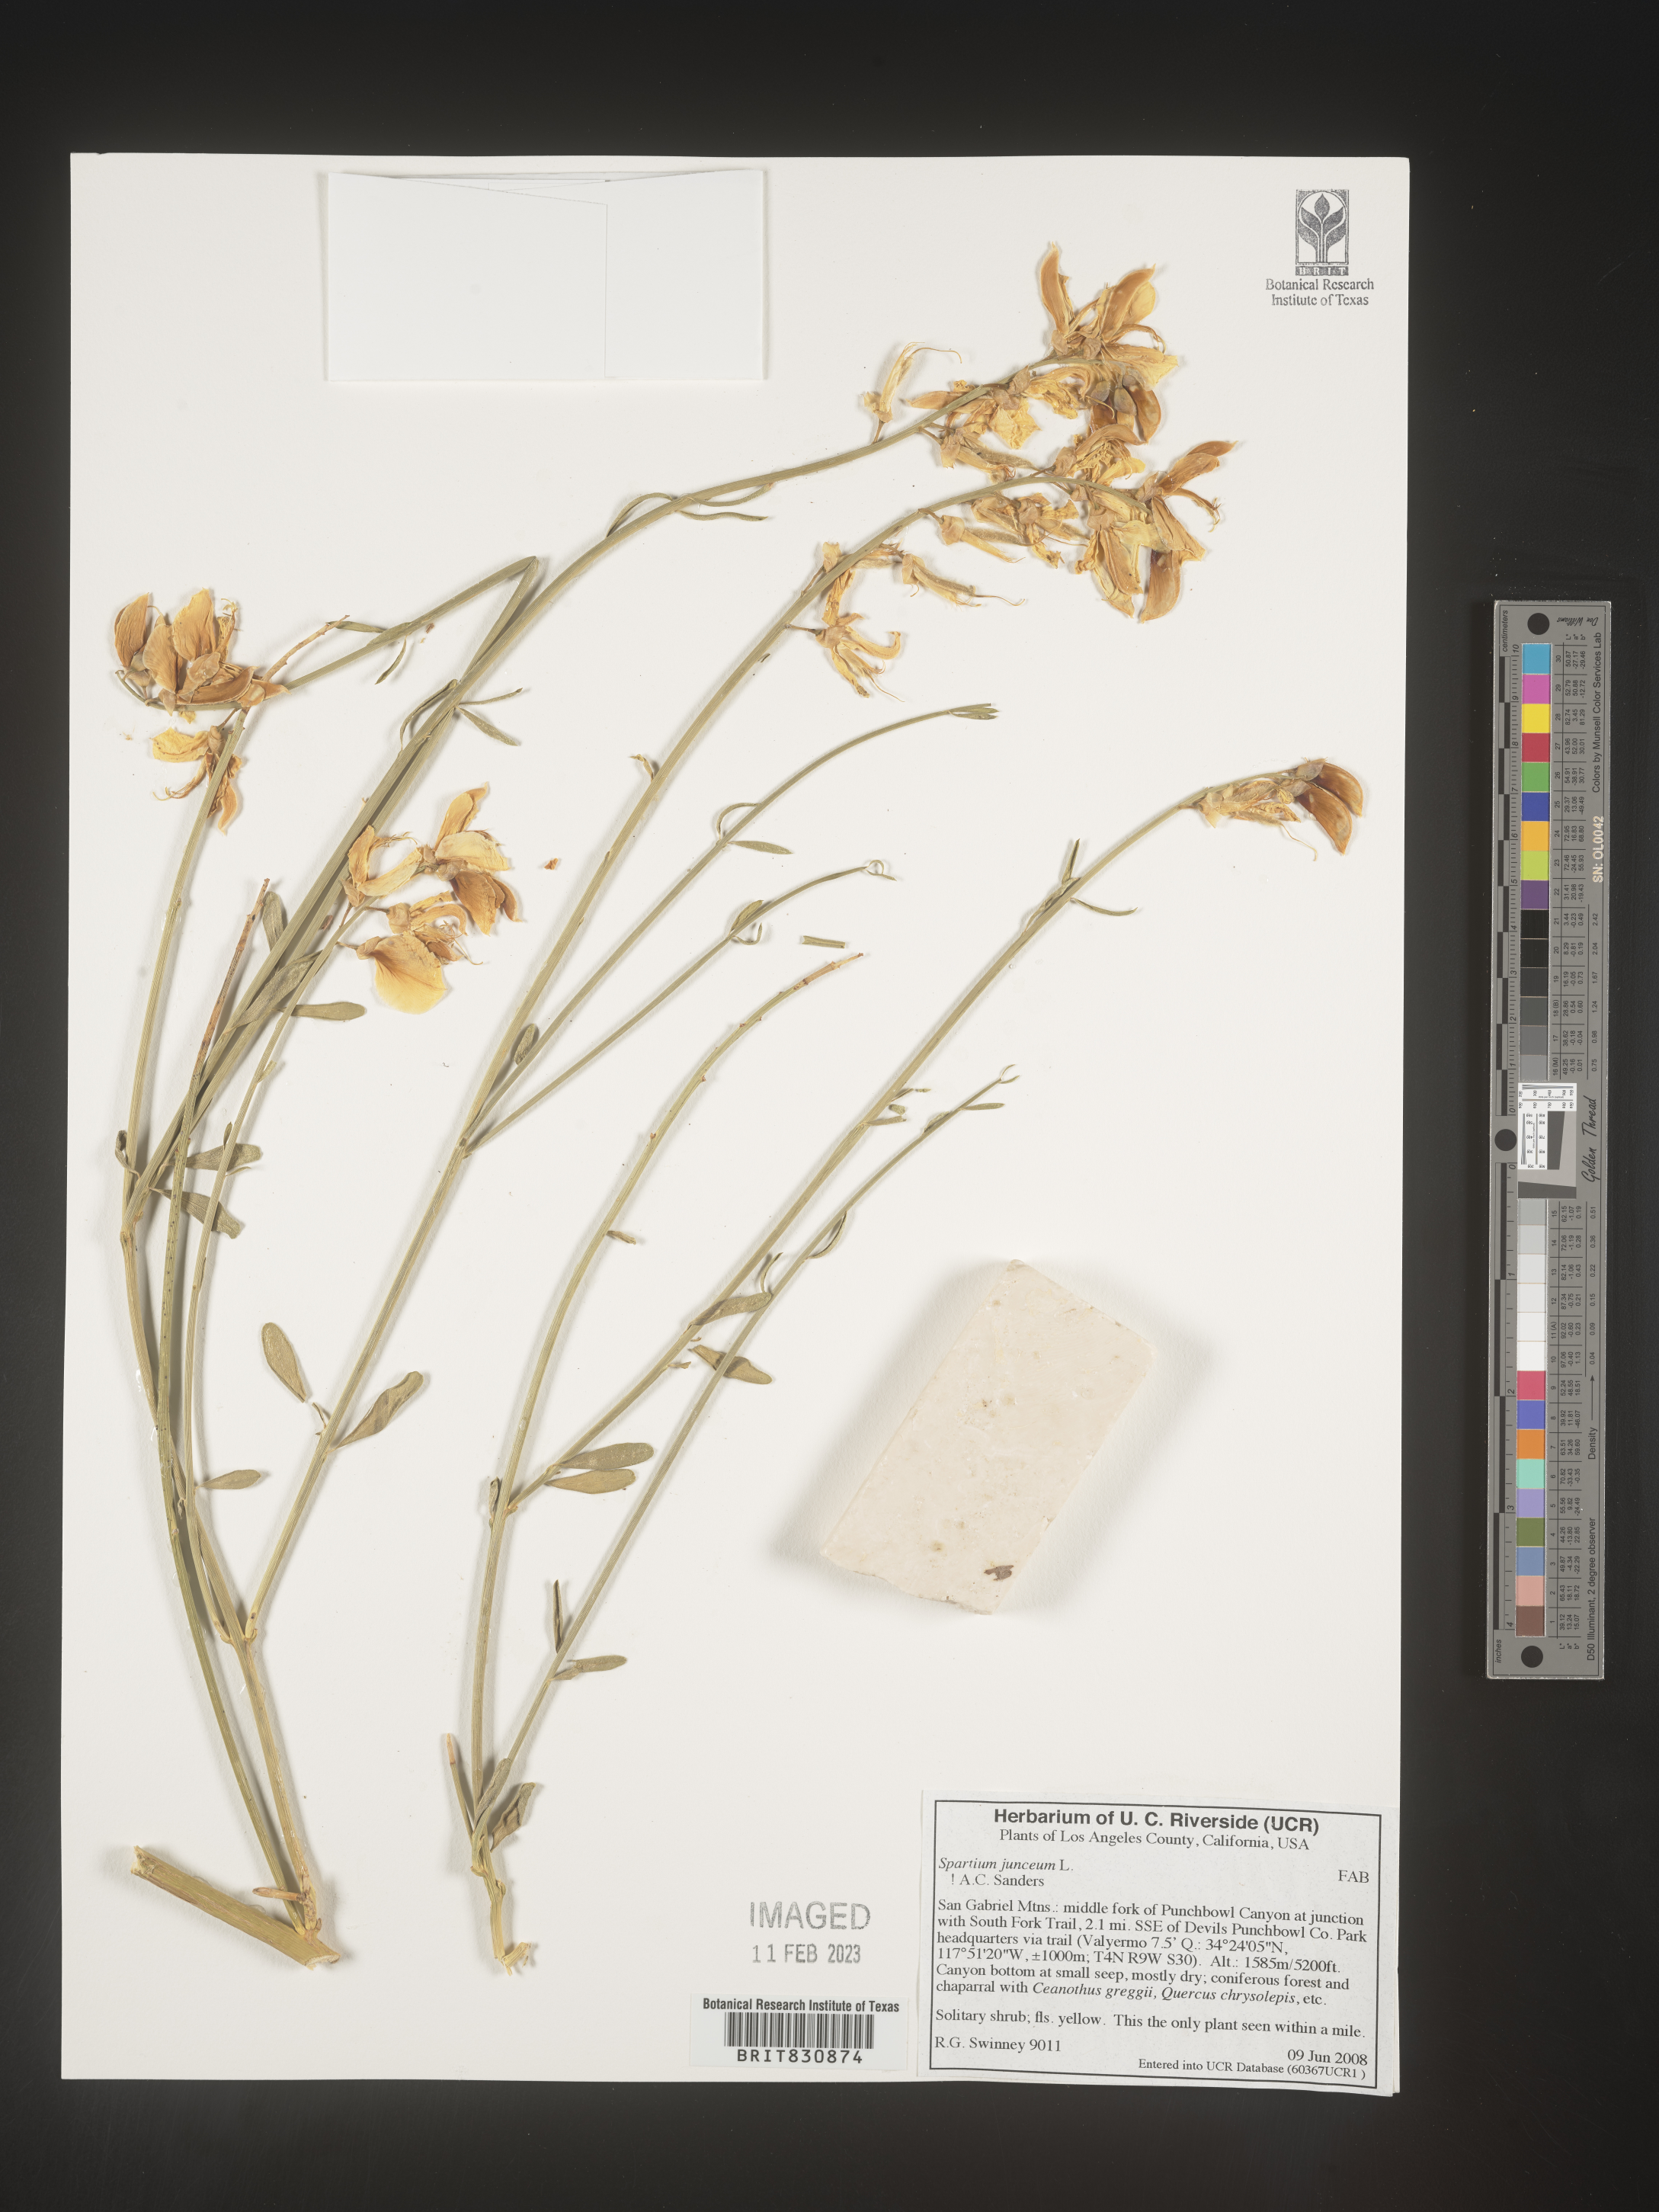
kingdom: Plantae
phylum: Tracheophyta
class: Magnoliopsida
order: Fabales
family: Fabaceae
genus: Spartium
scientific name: Spartium
